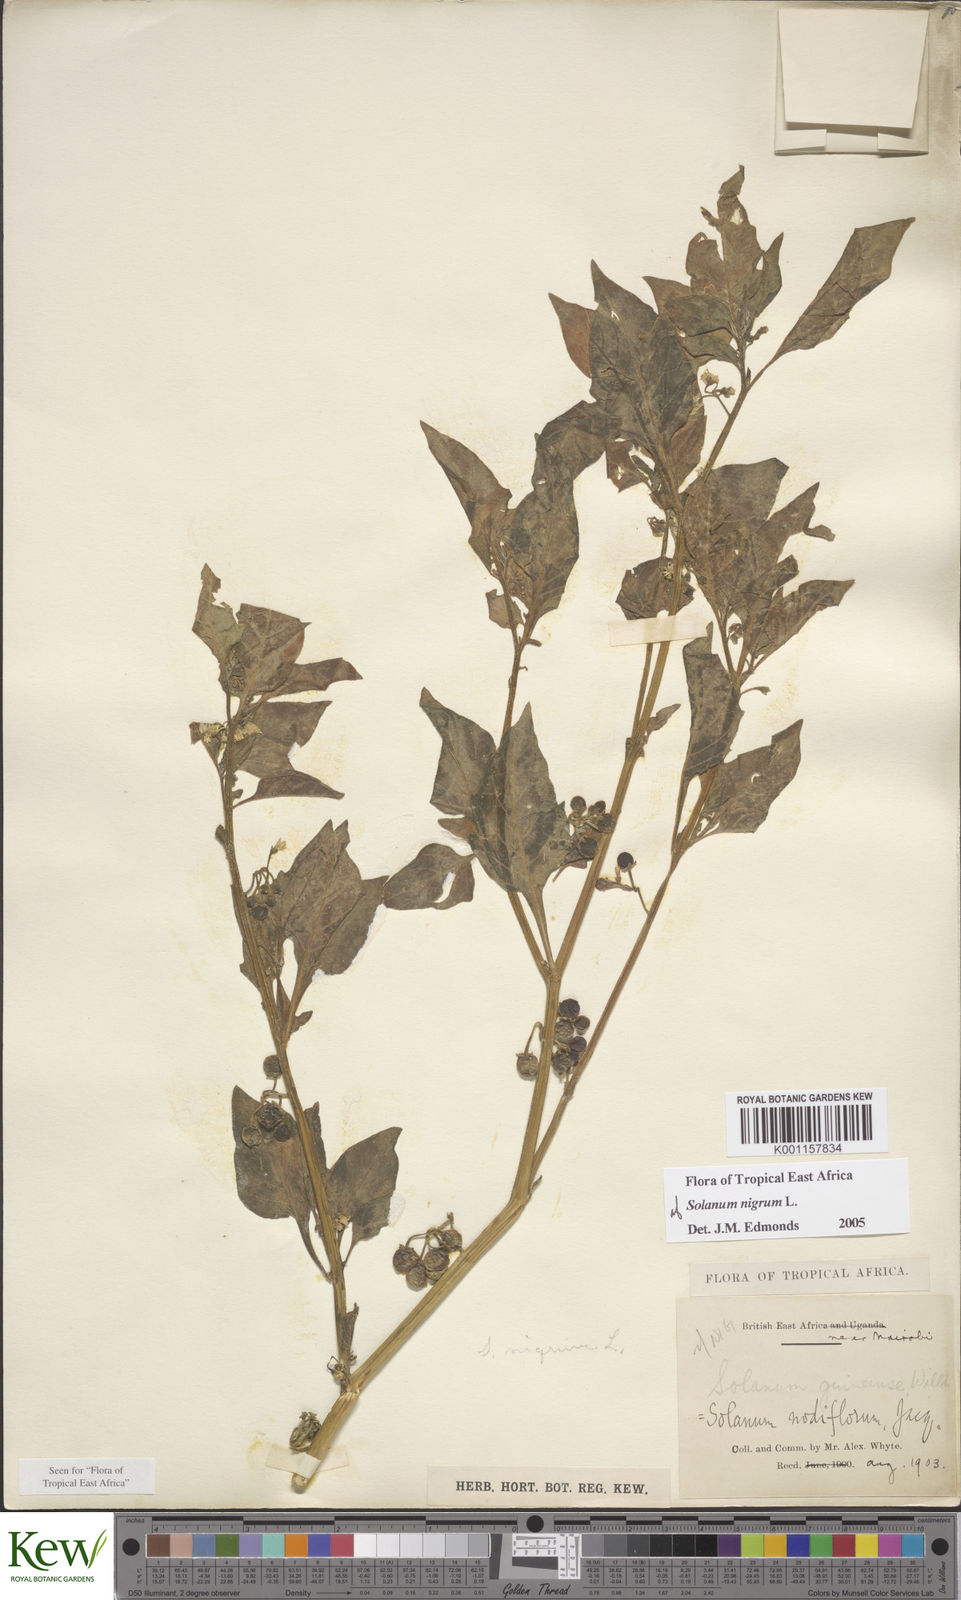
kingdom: Plantae
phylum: Tracheophyta
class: Magnoliopsida
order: Solanales
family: Solanaceae
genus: Solanum
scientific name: Solanum nigrum
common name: Black nightshade
